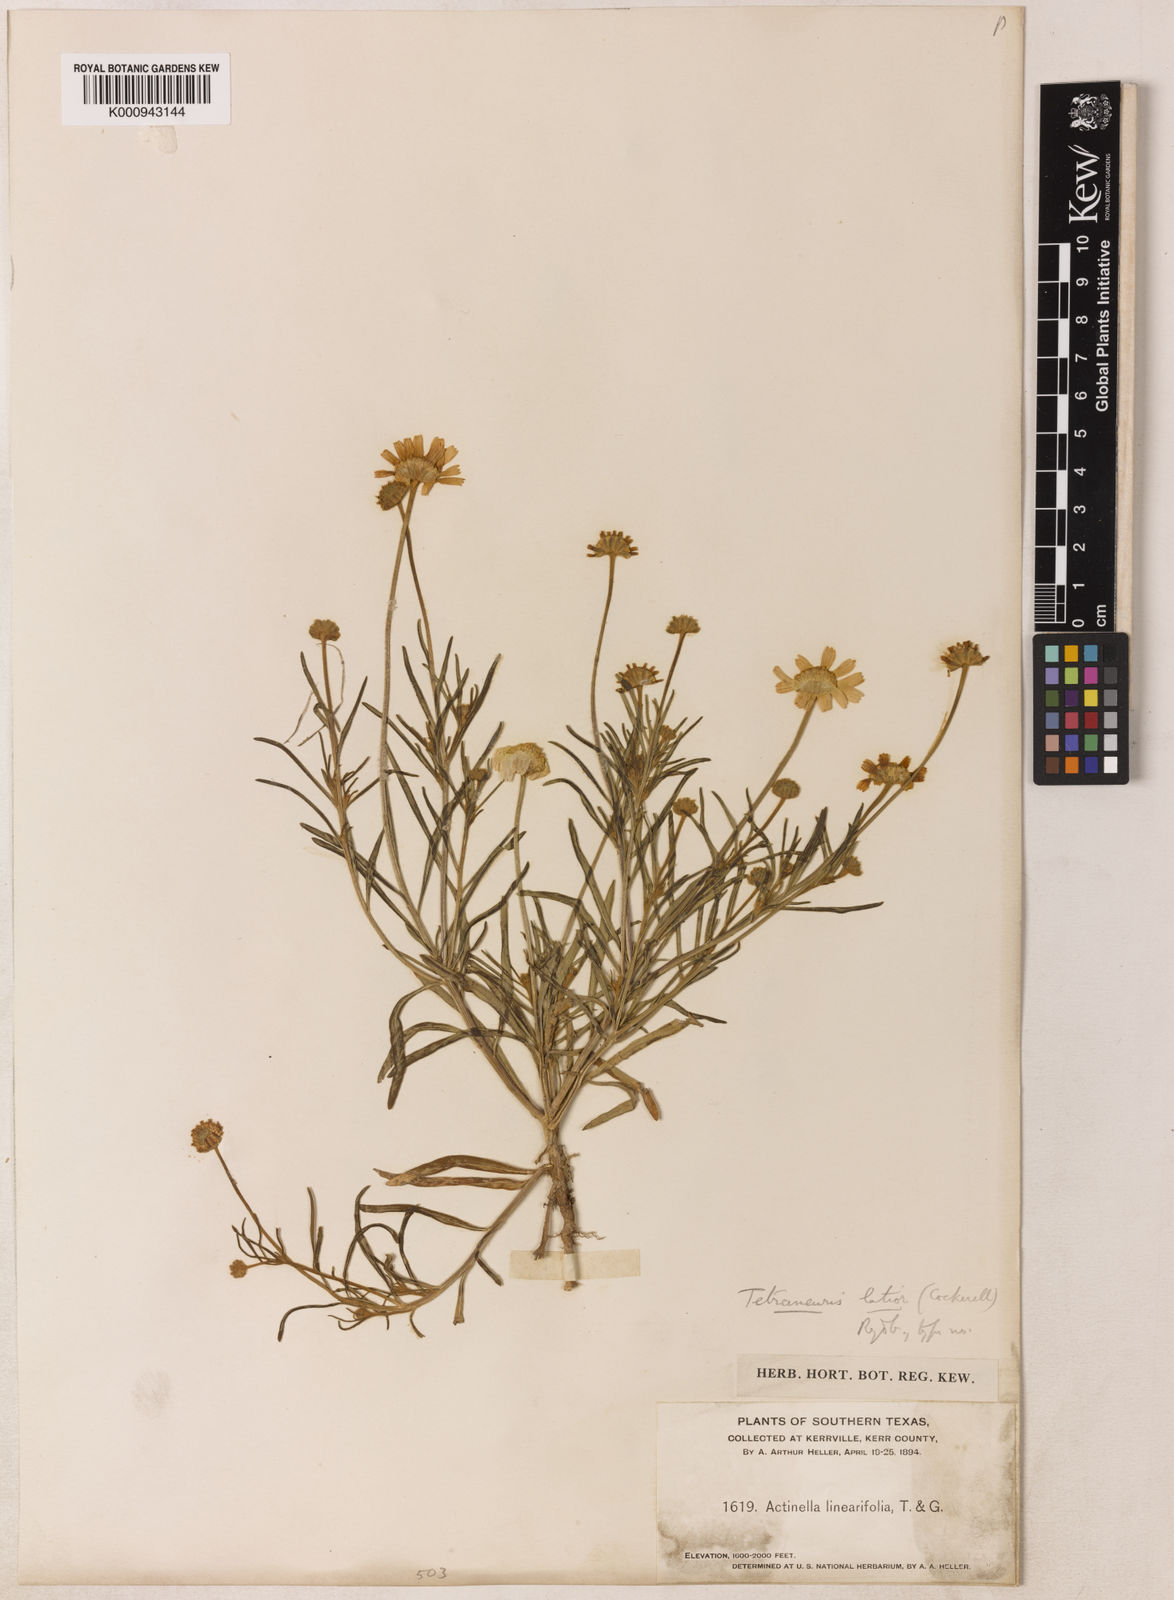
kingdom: Plantae
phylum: Tracheophyta
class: Magnoliopsida
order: Asterales
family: Asteraceae
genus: Tetraneuris
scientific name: Tetraneuris linearifolia
